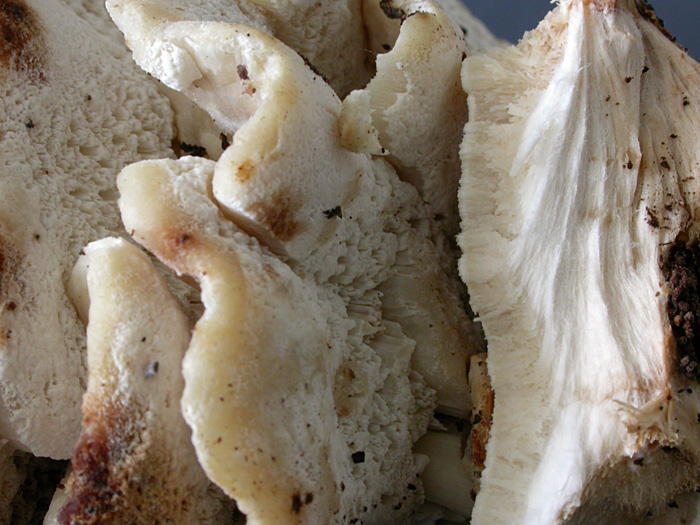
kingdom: Fungi
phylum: Basidiomycota
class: Agaricomycetes
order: Polyporales
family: Dacryobolaceae
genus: Postia
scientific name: Postia balsamea
